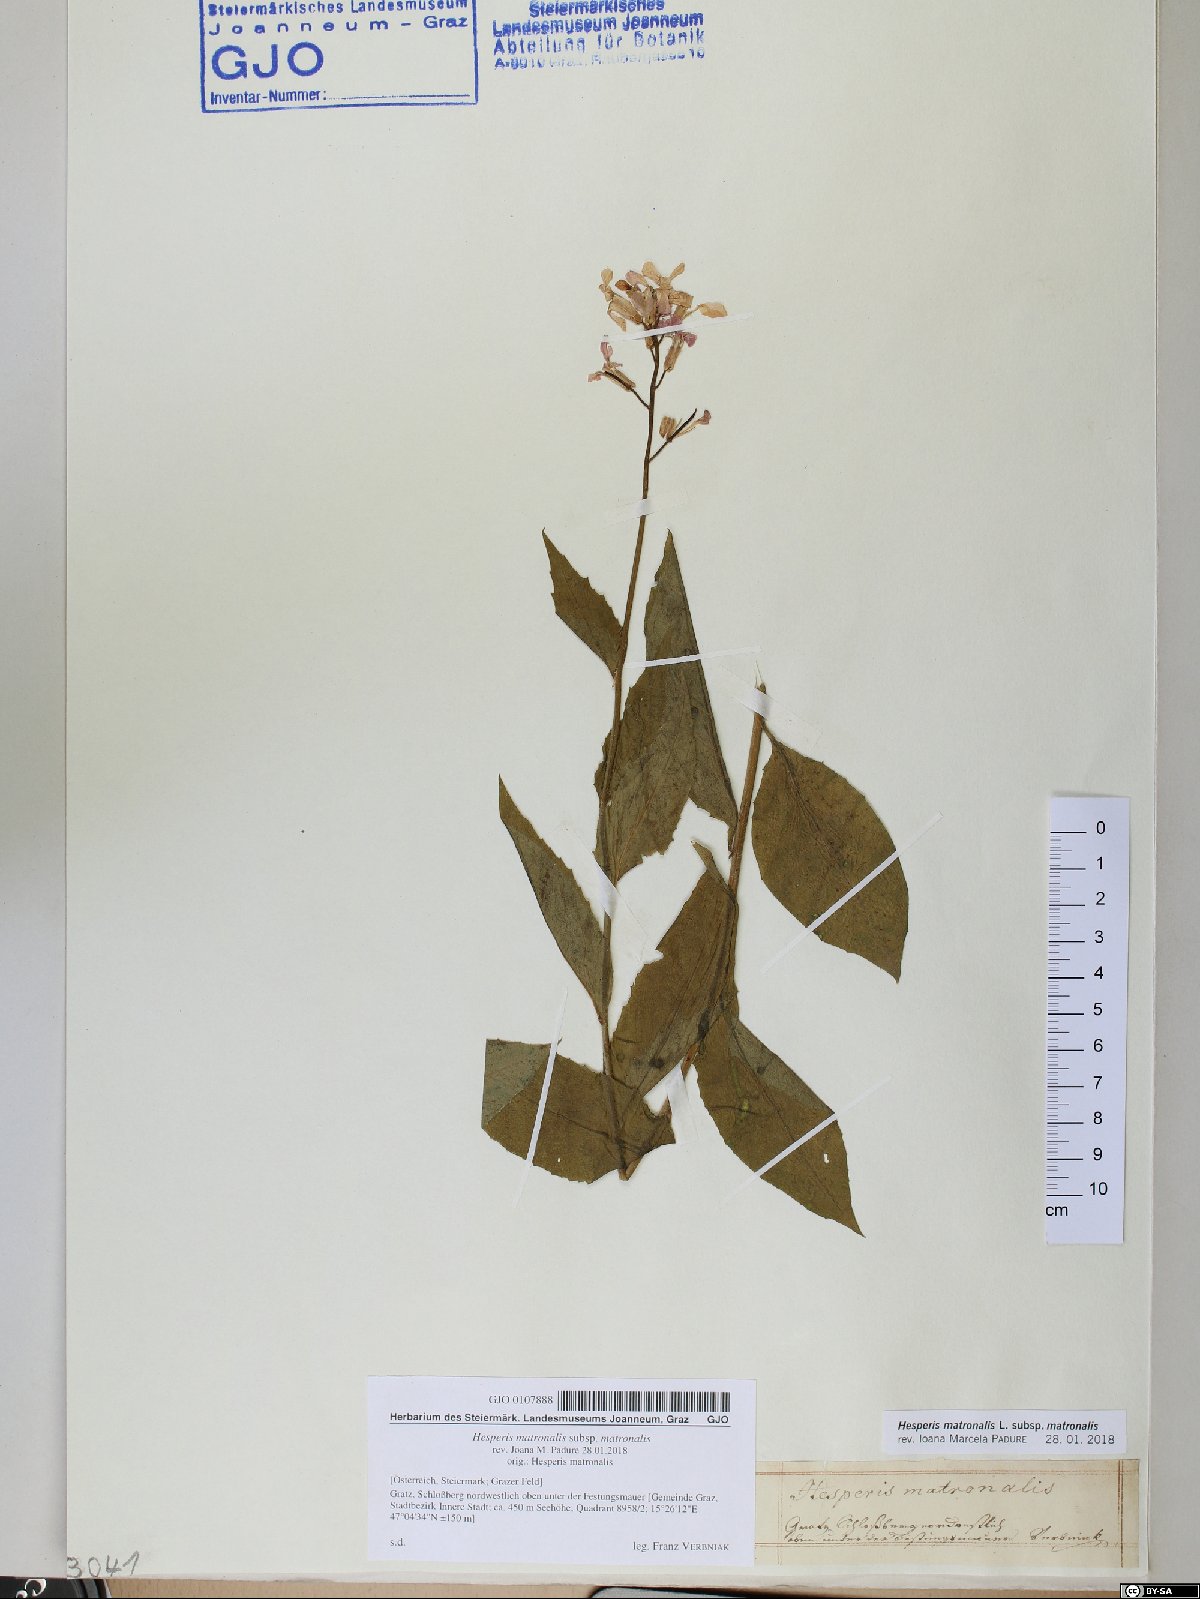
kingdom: Plantae
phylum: Tracheophyta
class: Magnoliopsida
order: Brassicales
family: Brassicaceae
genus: Hesperis
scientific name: Hesperis matronalis
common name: Dame's-violet
